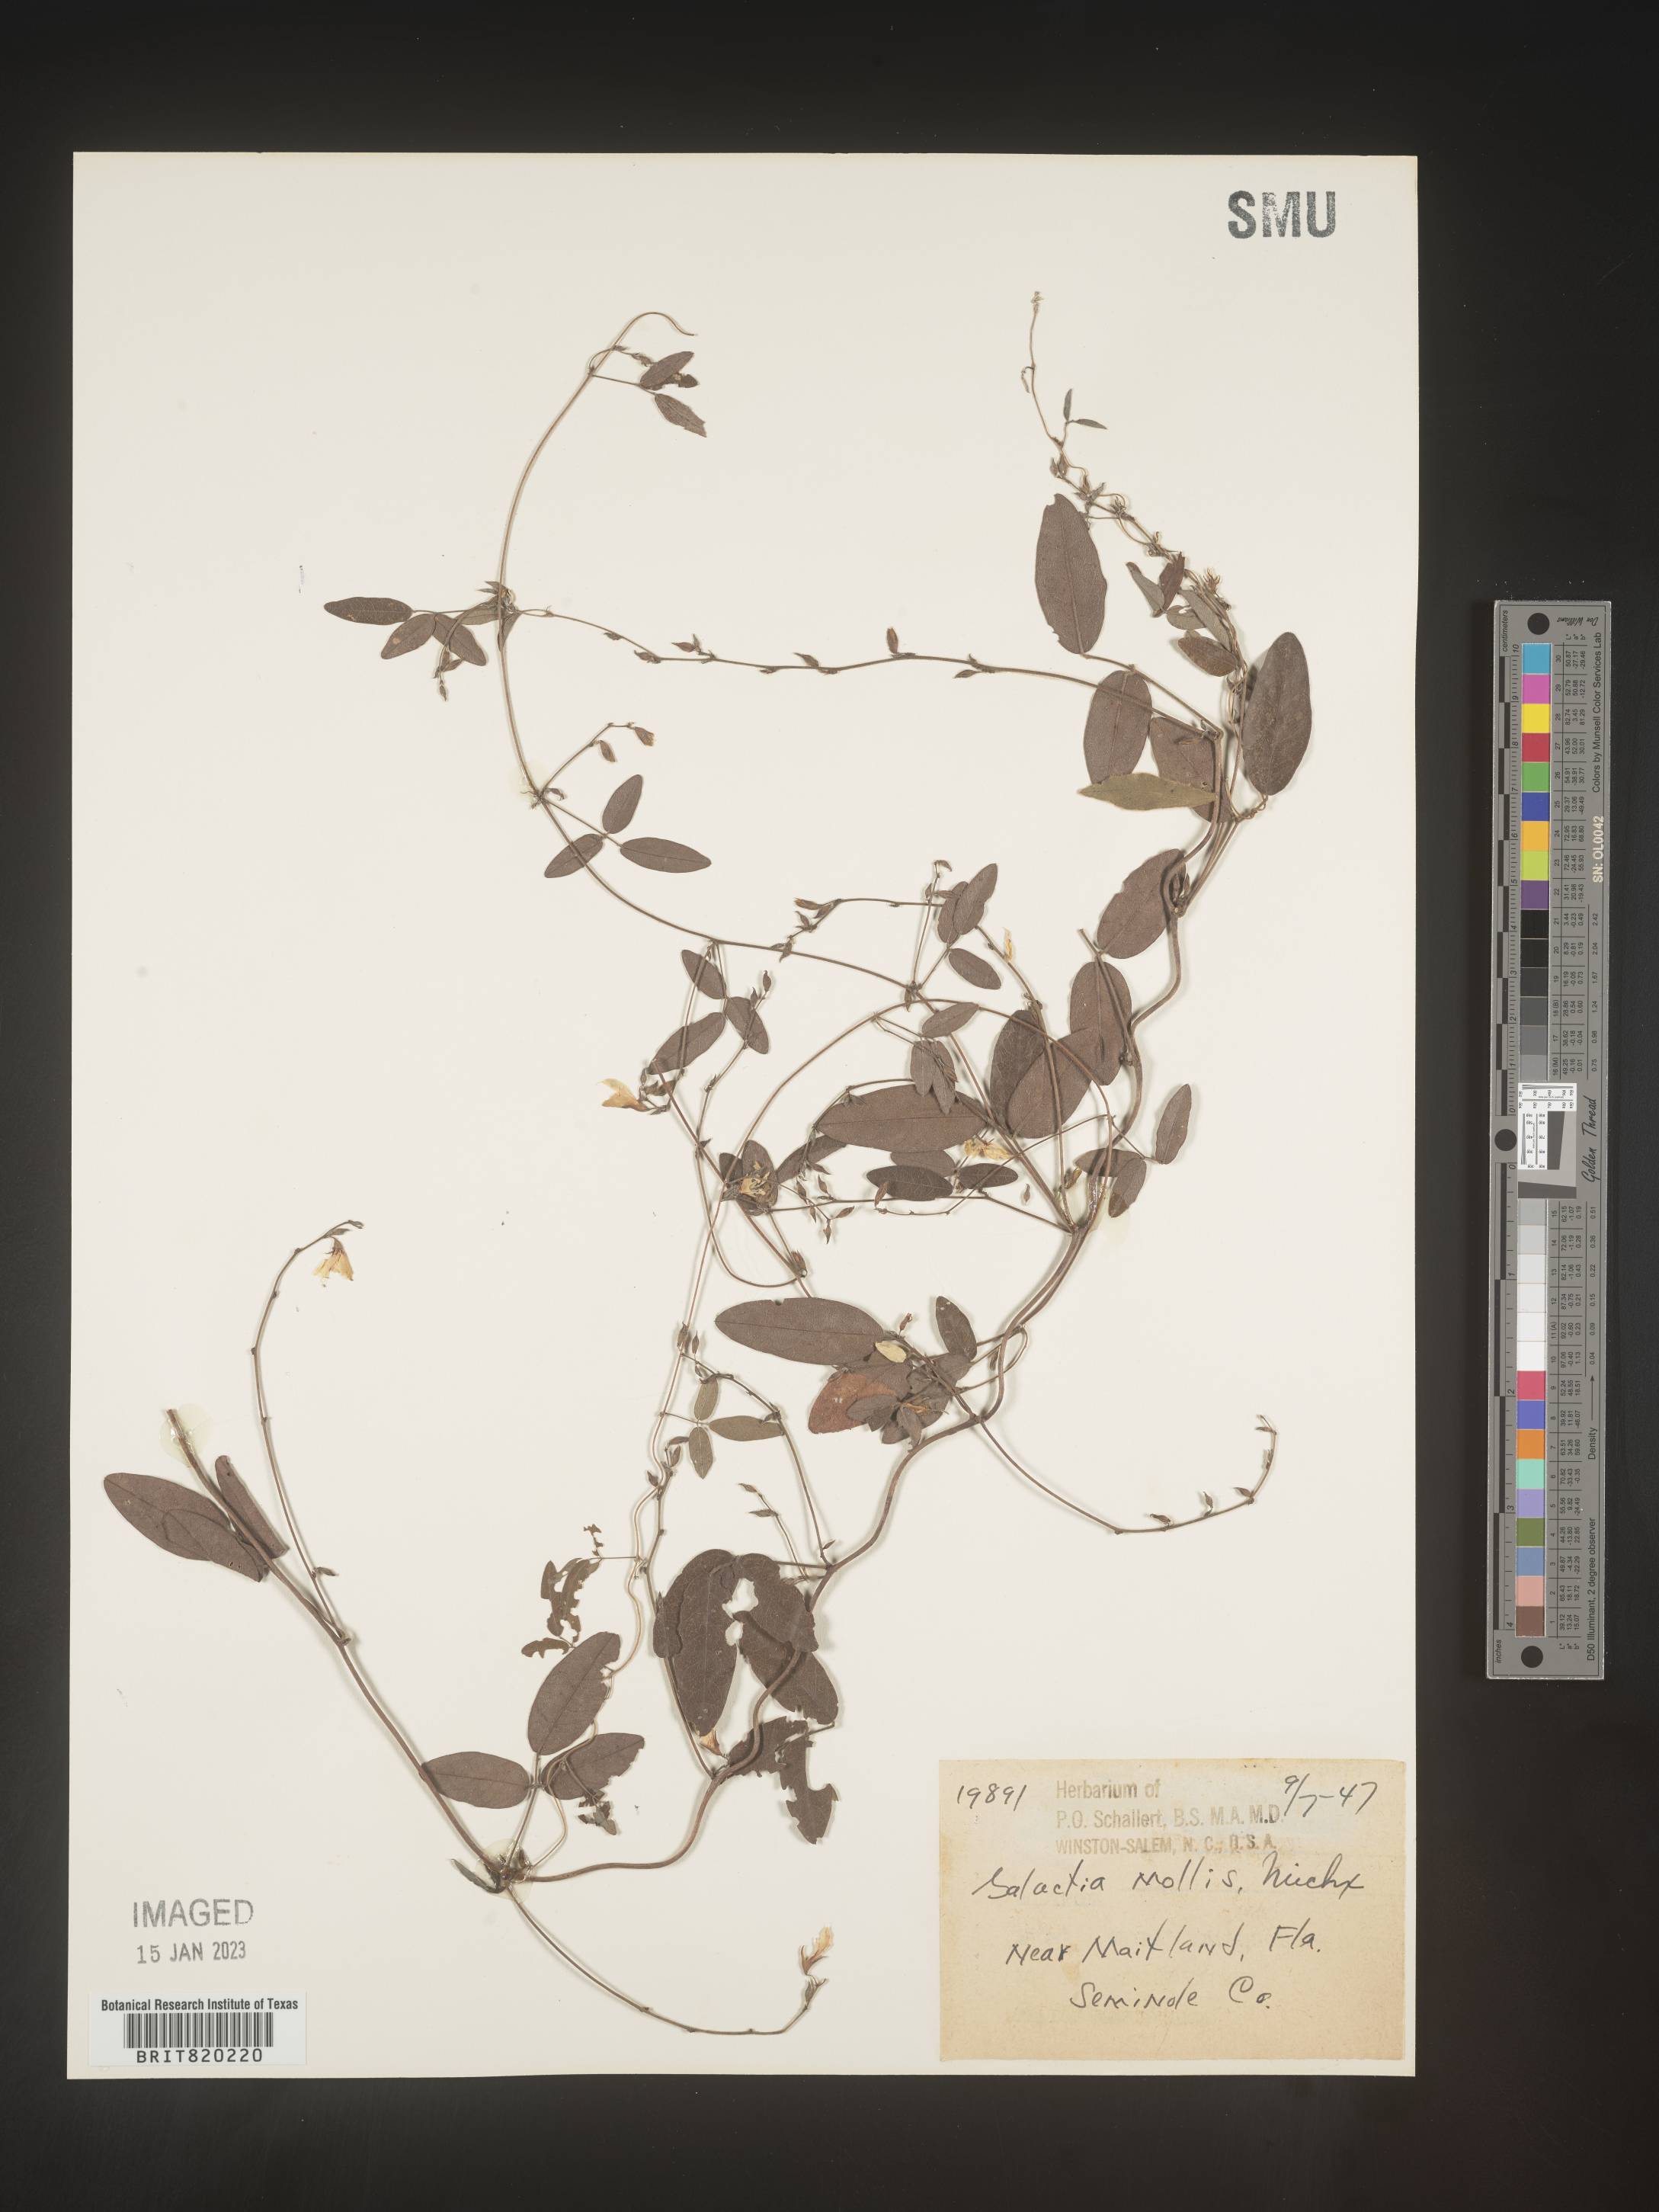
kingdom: Plantae
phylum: Tracheophyta
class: Magnoliopsida
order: Fabales
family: Fabaceae
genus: Galactia
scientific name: Galactia volubilis
